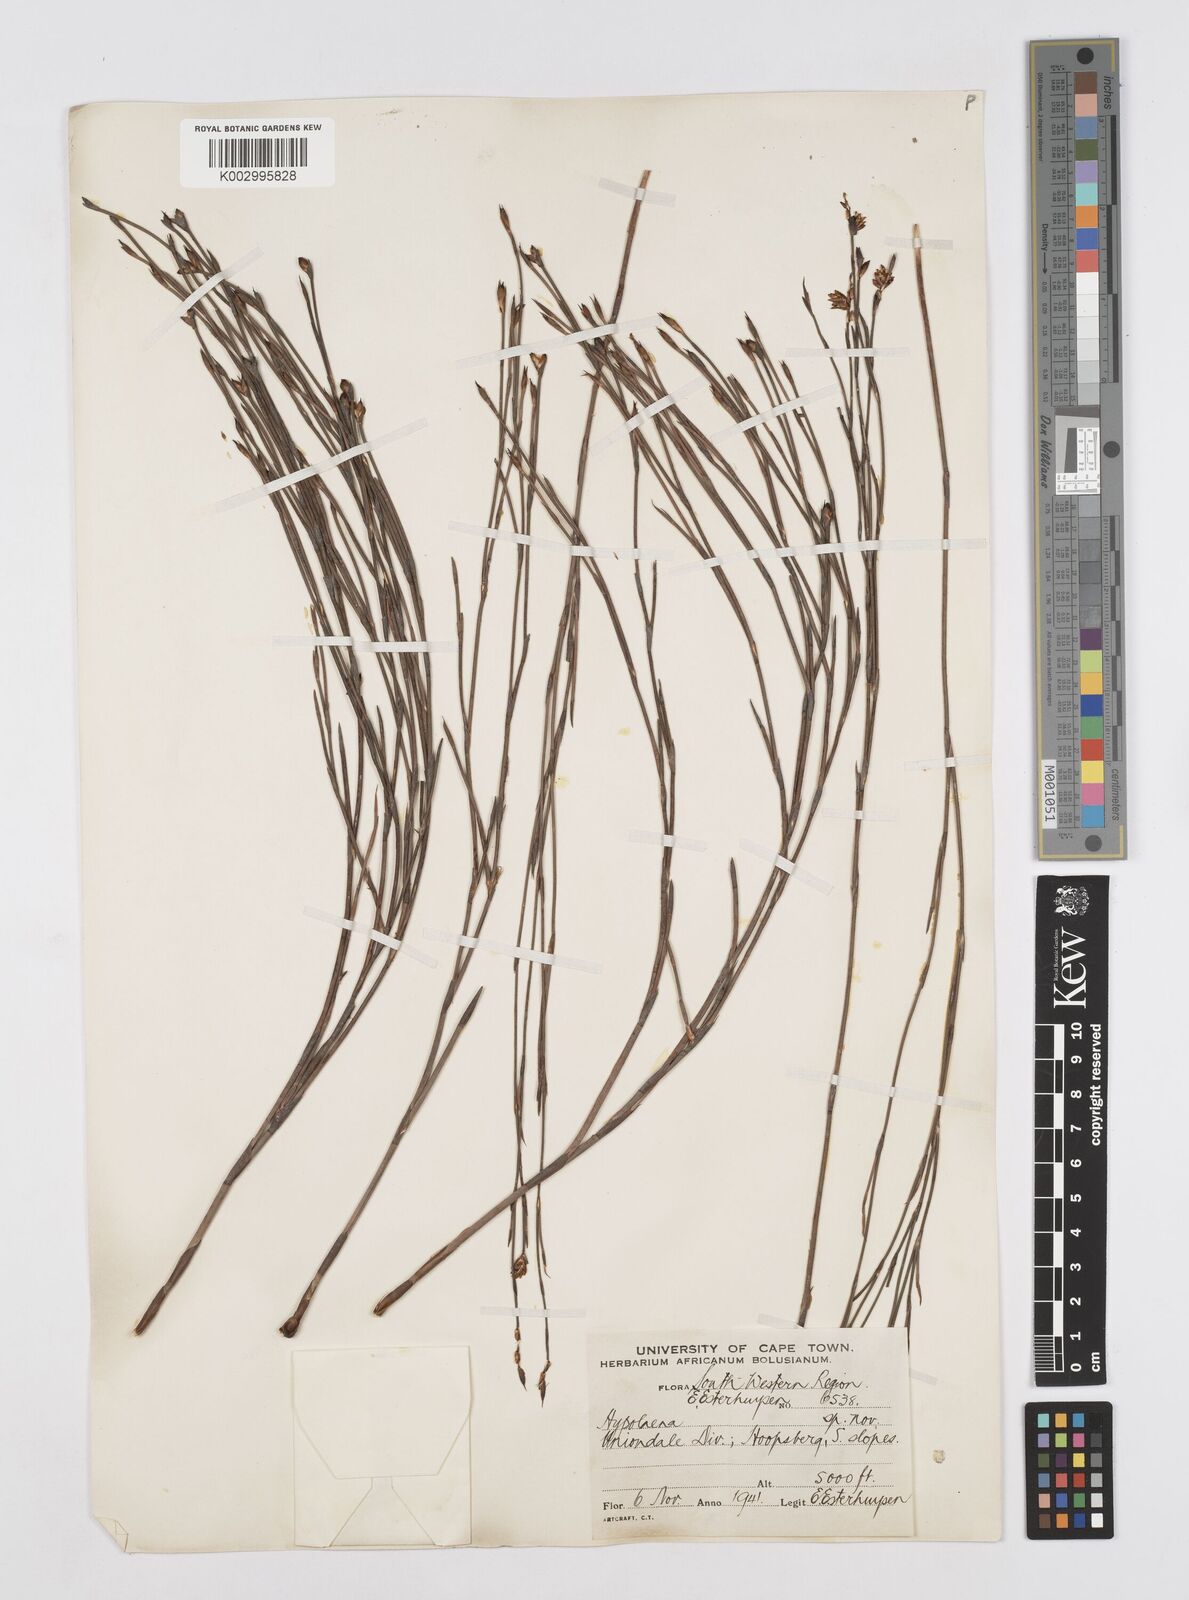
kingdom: Plantae
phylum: Tracheophyta
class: Liliopsida
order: Poales
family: Restionaceae
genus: Mastersiella
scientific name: Mastersiella spathulata
